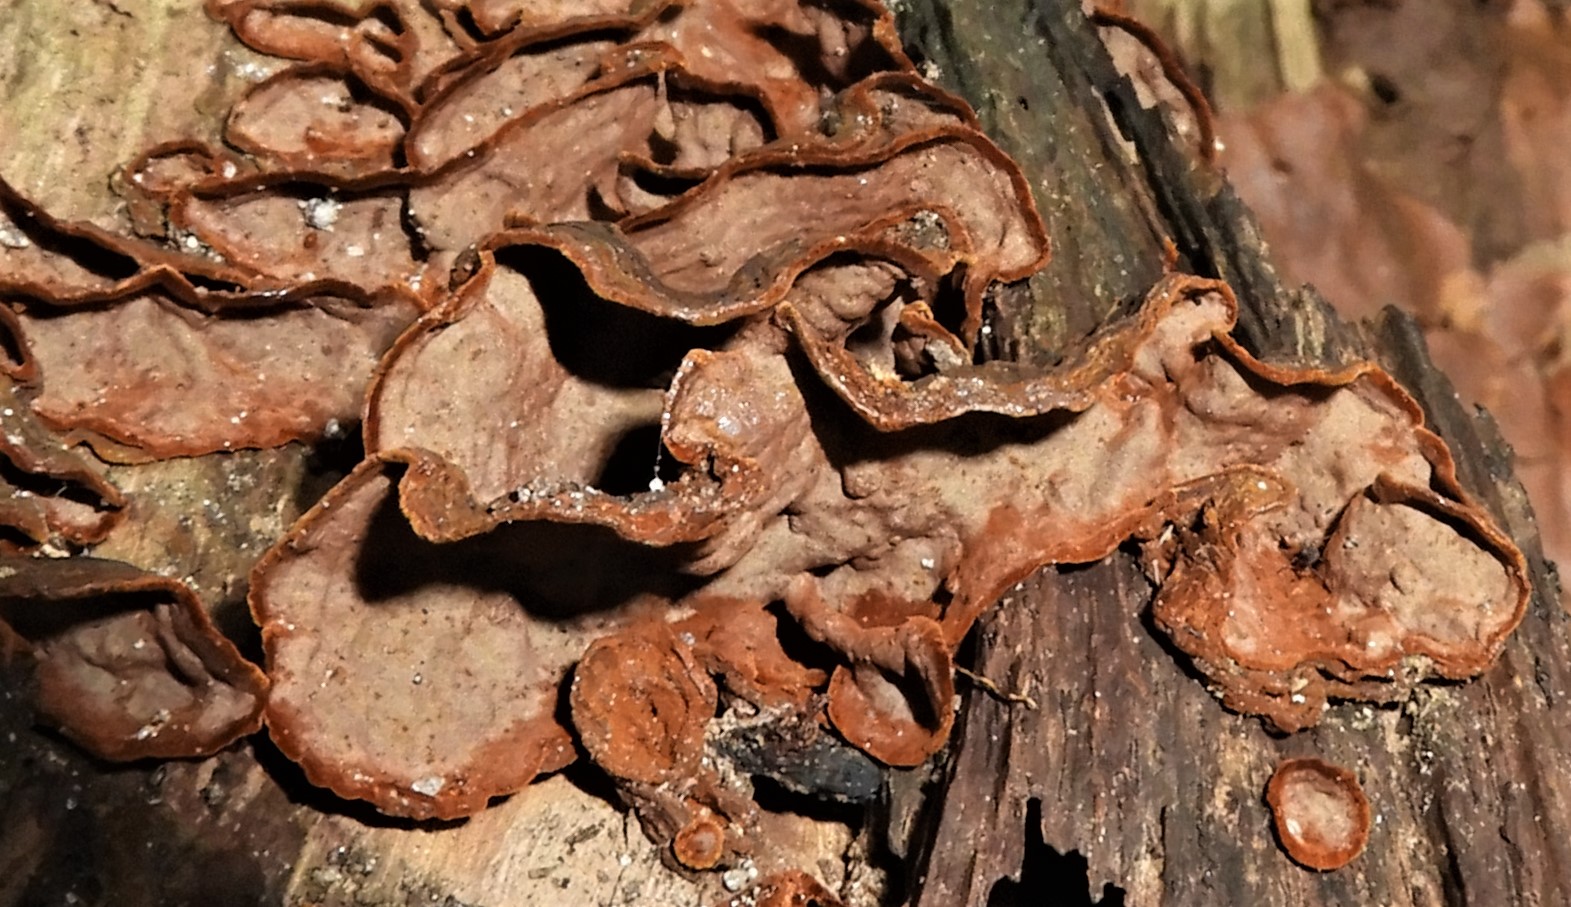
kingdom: Fungi
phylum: Basidiomycota
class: Agaricomycetes
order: Hymenochaetales
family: Hymenochaetaceae
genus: Hymenochaete
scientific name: Hymenochaete rubiginosa
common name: stiv ruslædersvamp
